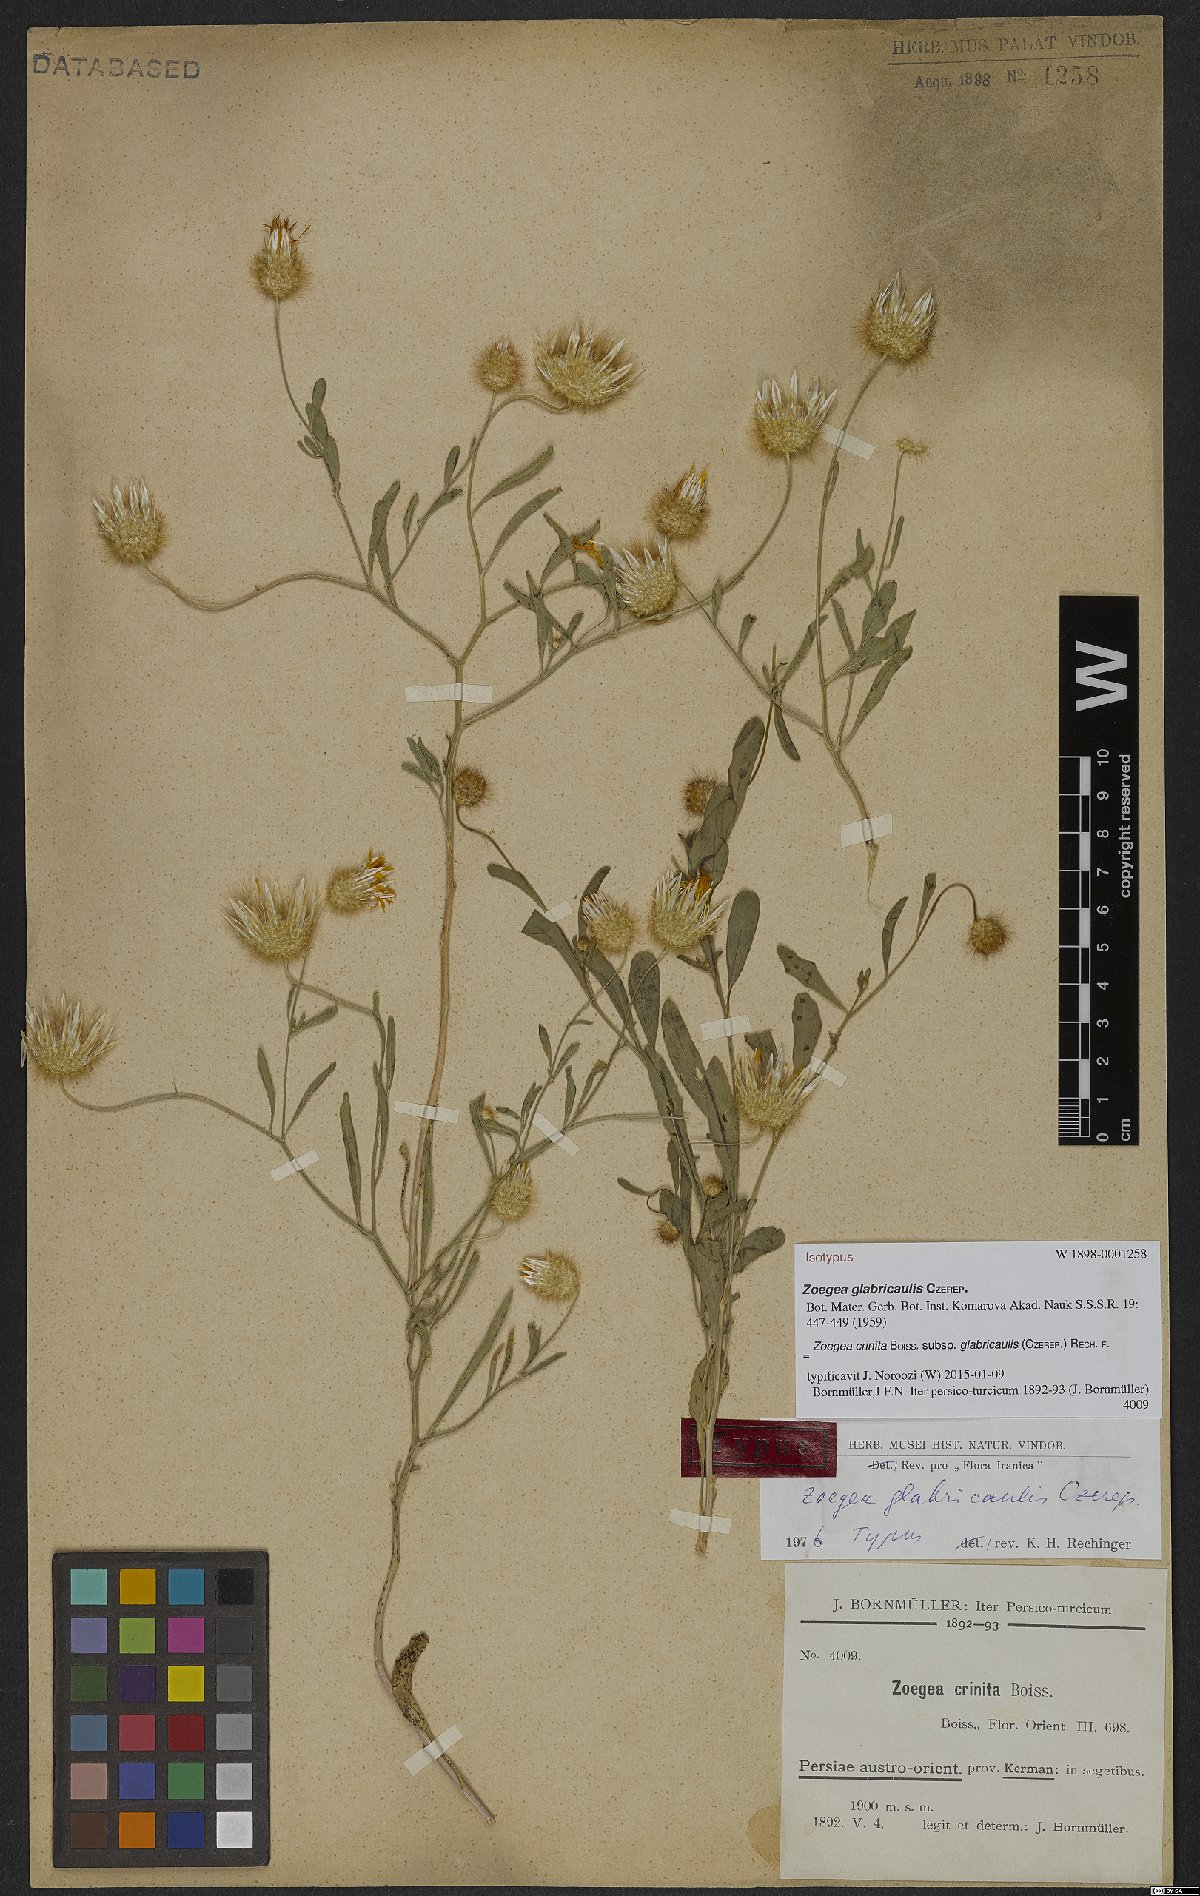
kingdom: Plantae
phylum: Tracheophyta
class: Magnoliopsida
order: Asterales
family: Asteraceae
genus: Zoegea
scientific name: Zoegea crinita
